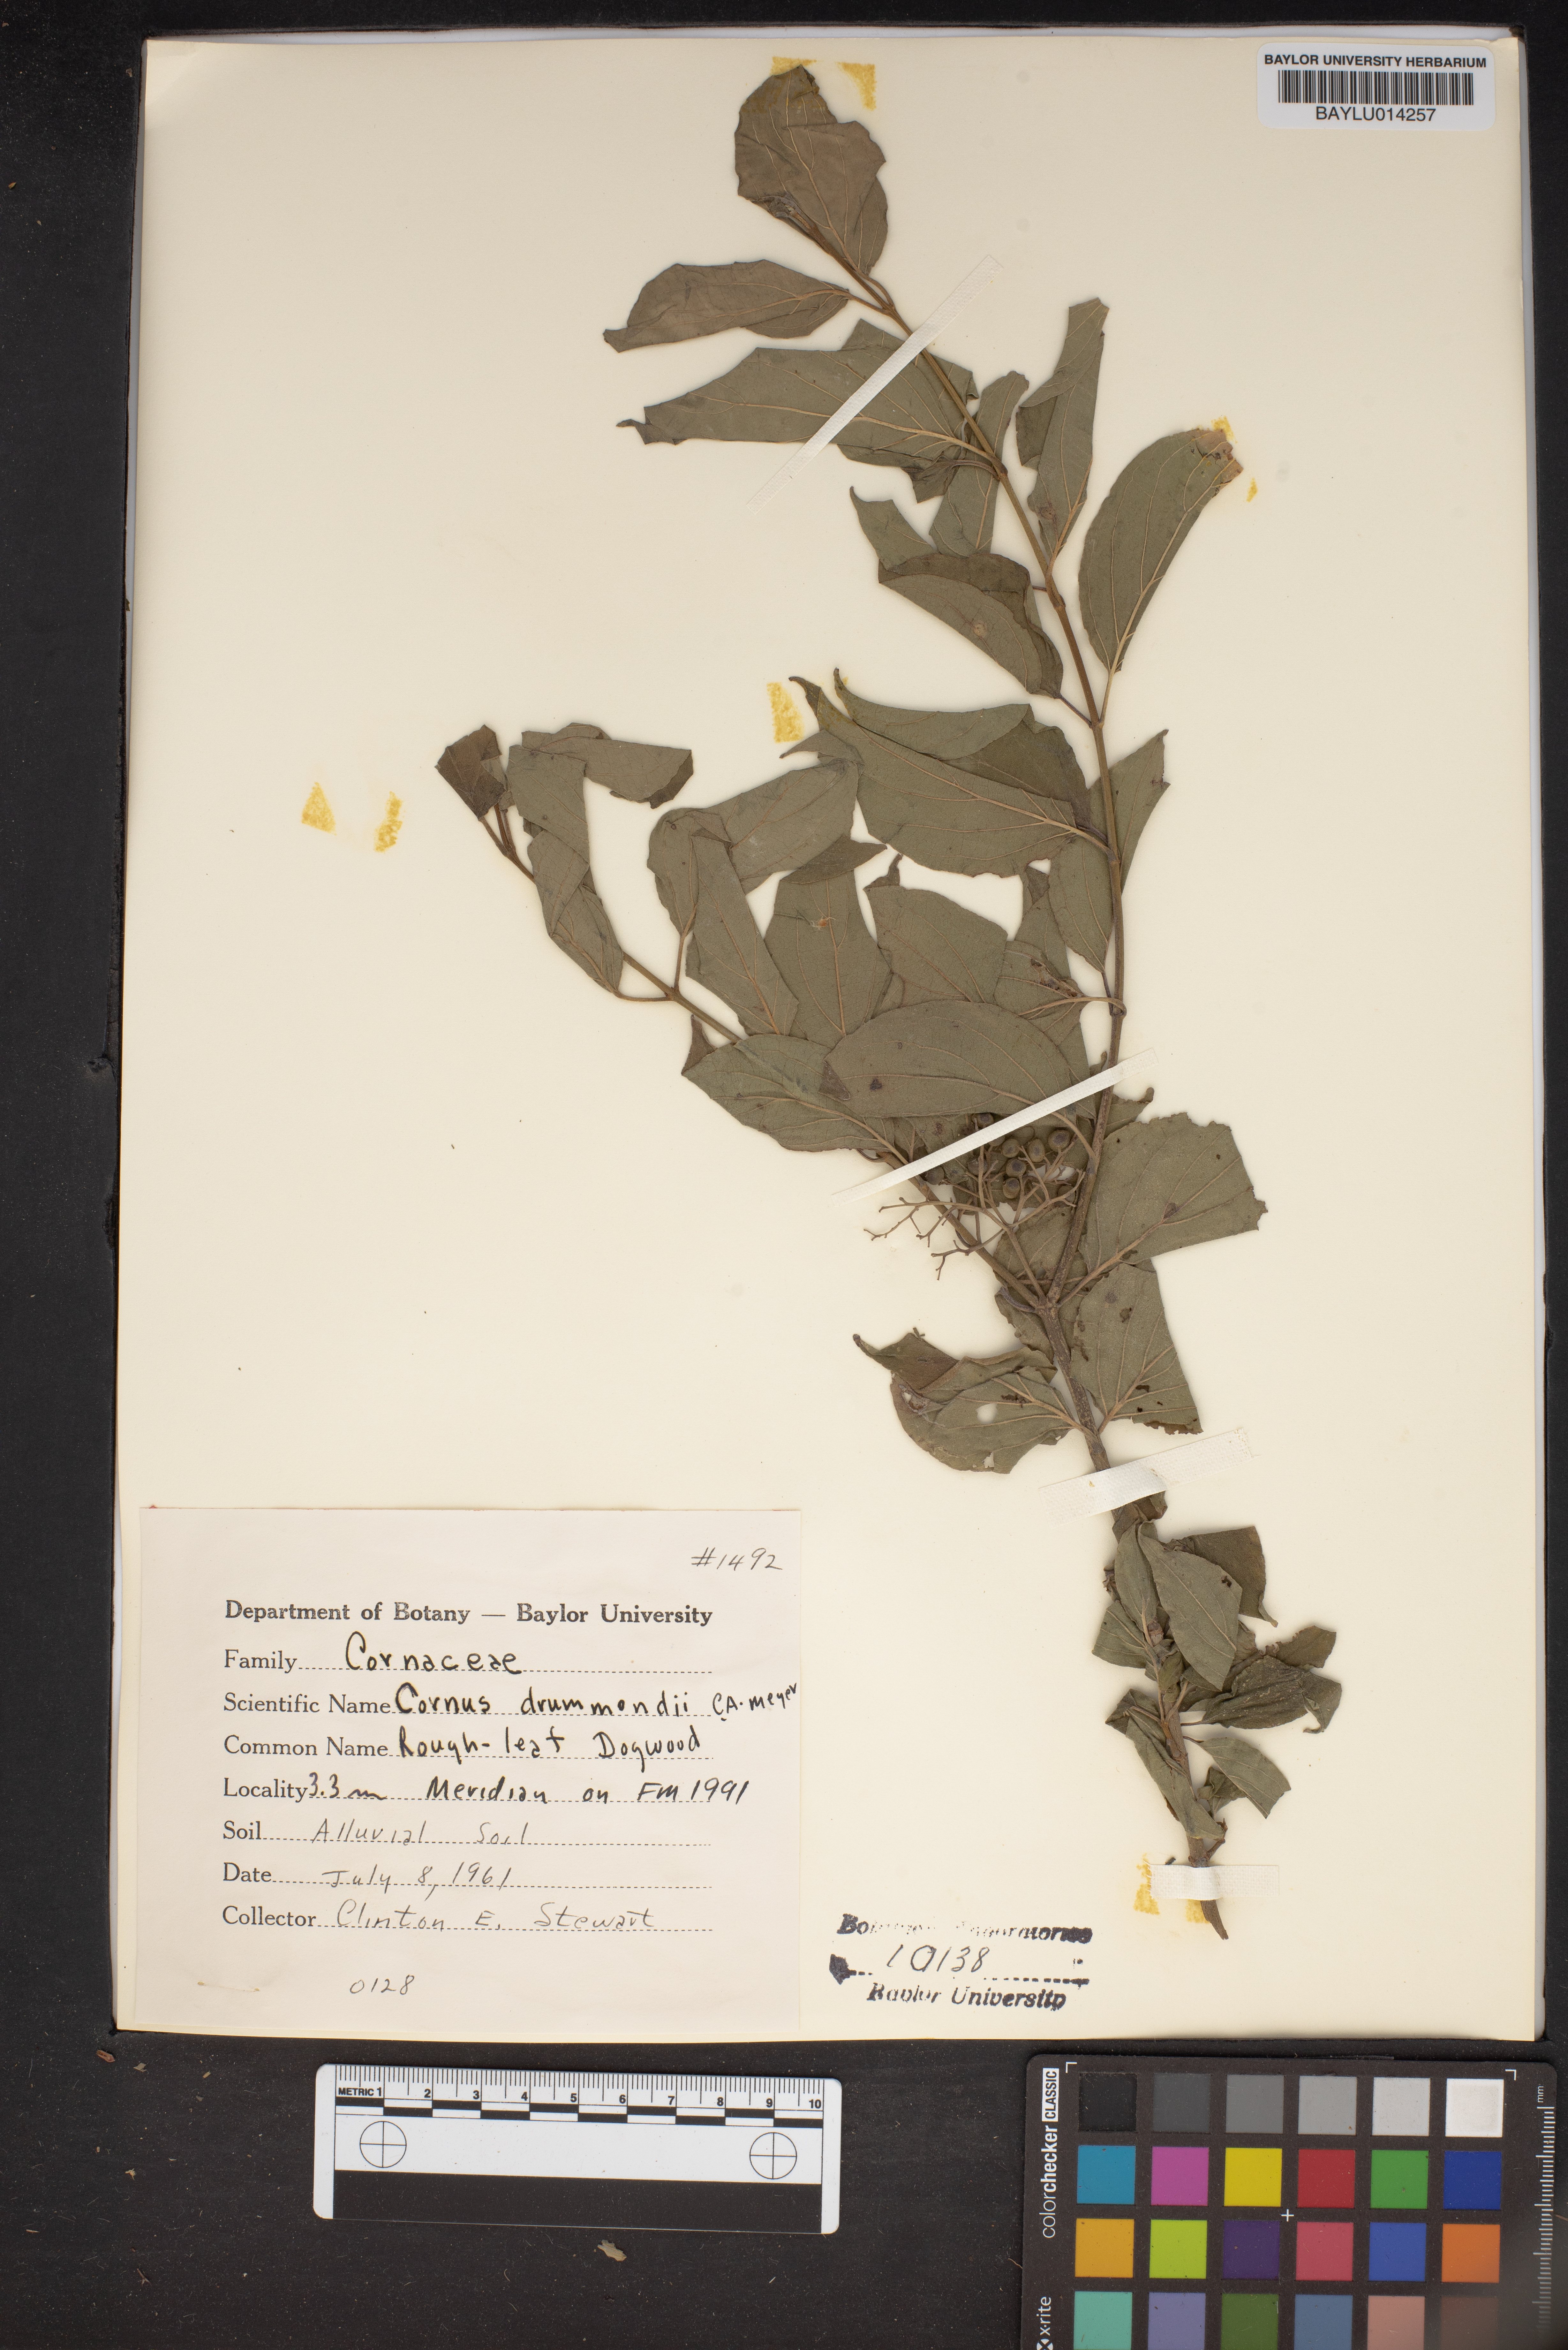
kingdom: Plantae
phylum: Tracheophyta
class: Magnoliopsida
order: Cornales
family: Cornaceae
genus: Cornus
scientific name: Cornus drummondii
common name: Rough-leaf dogwood
